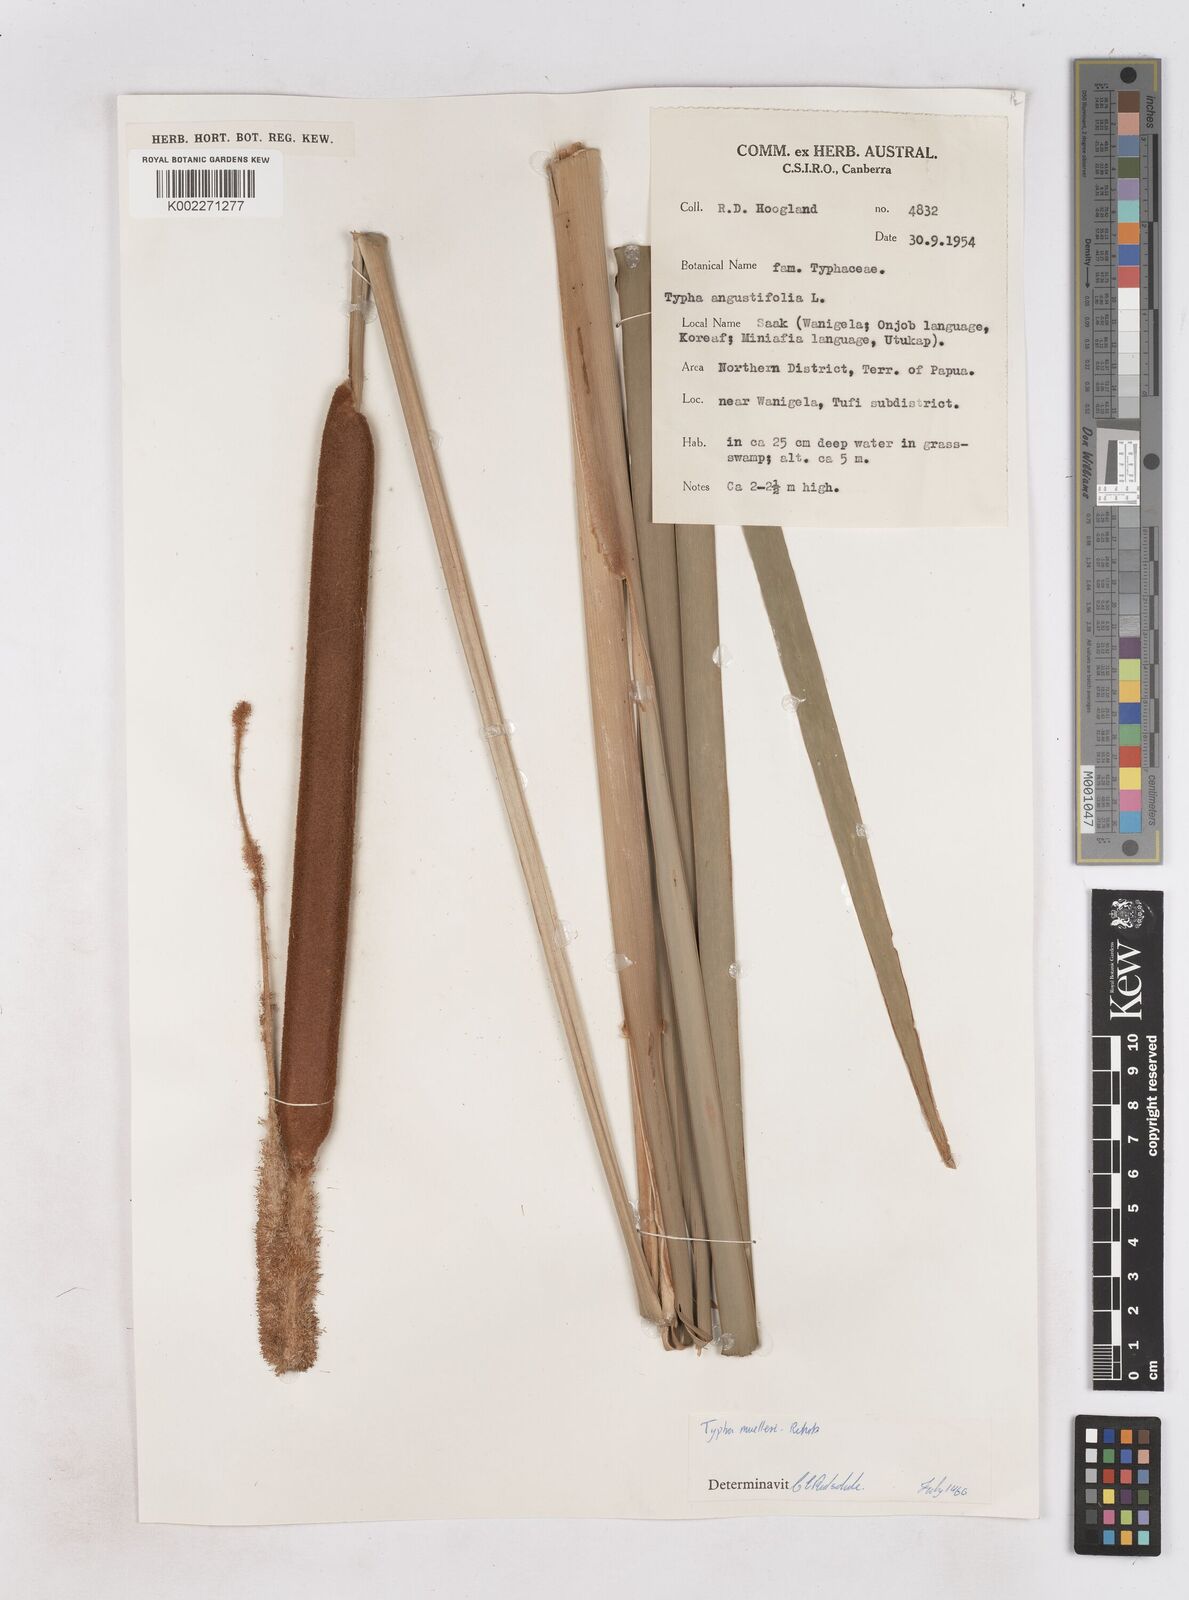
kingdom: Plantae
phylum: Tracheophyta
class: Liliopsida
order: Poales
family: Typhaceae
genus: Typha
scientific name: Typha orientalis
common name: Bullrush
